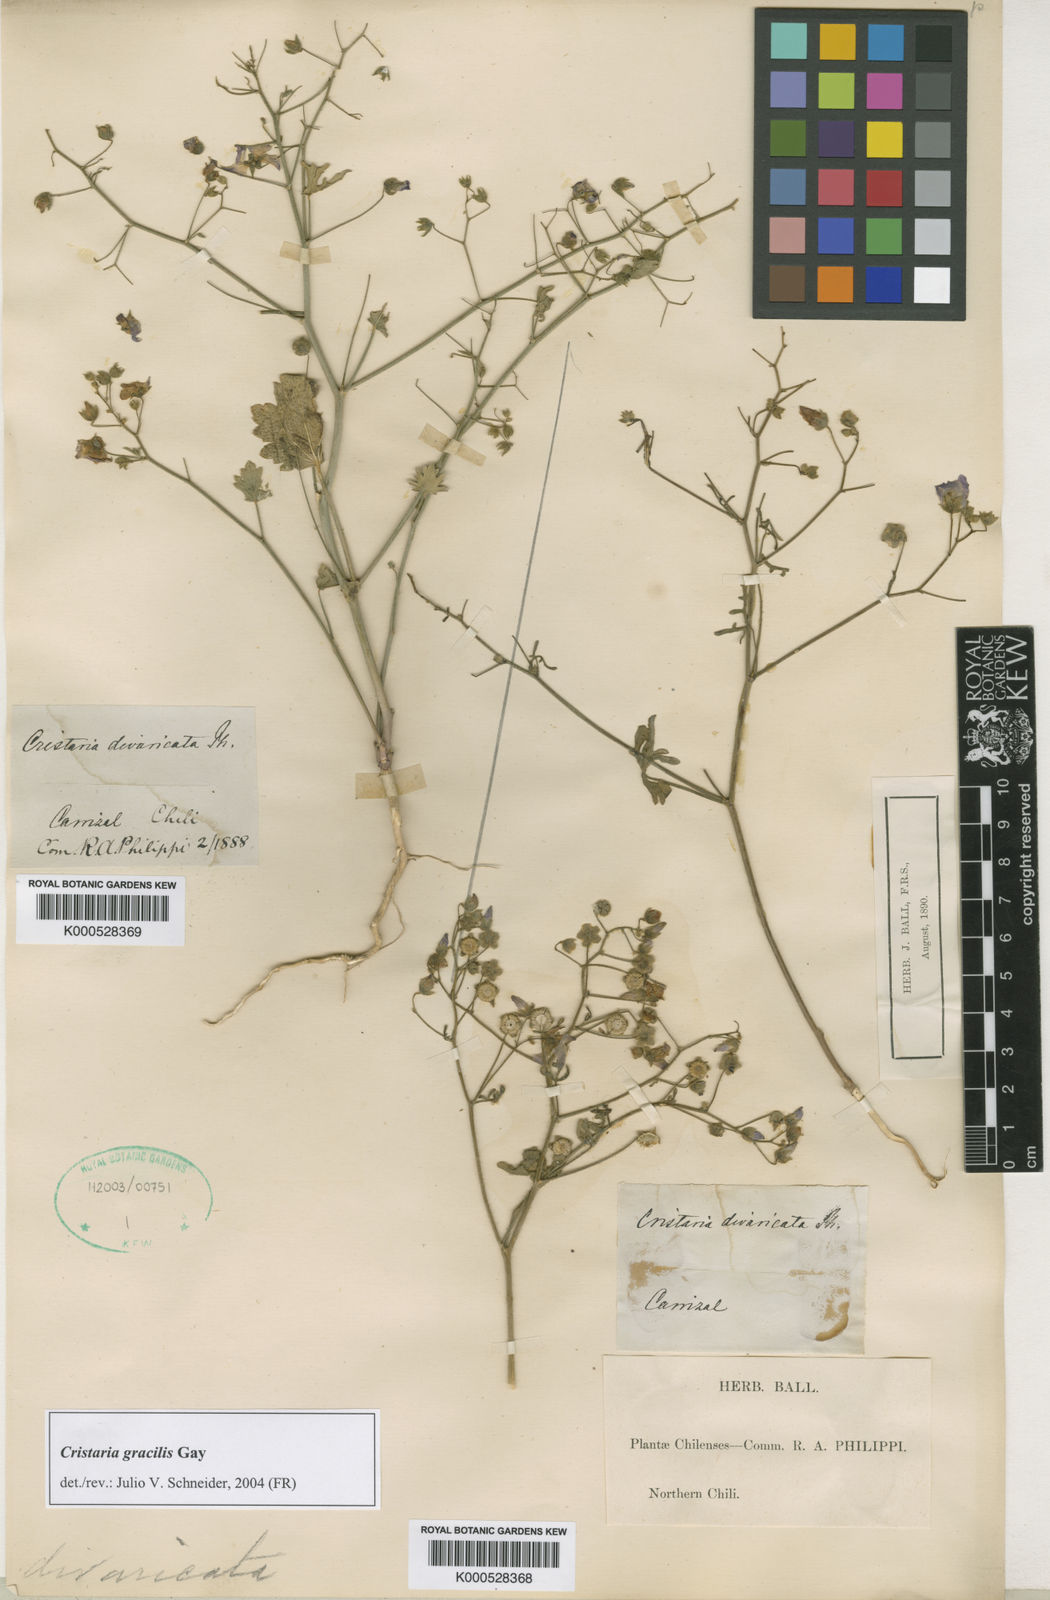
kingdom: Plantae
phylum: Tracheophyta
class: Magnoliopsida
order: Malvales
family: Malvaceae
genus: Cristaria
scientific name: Cristaria gracilis
